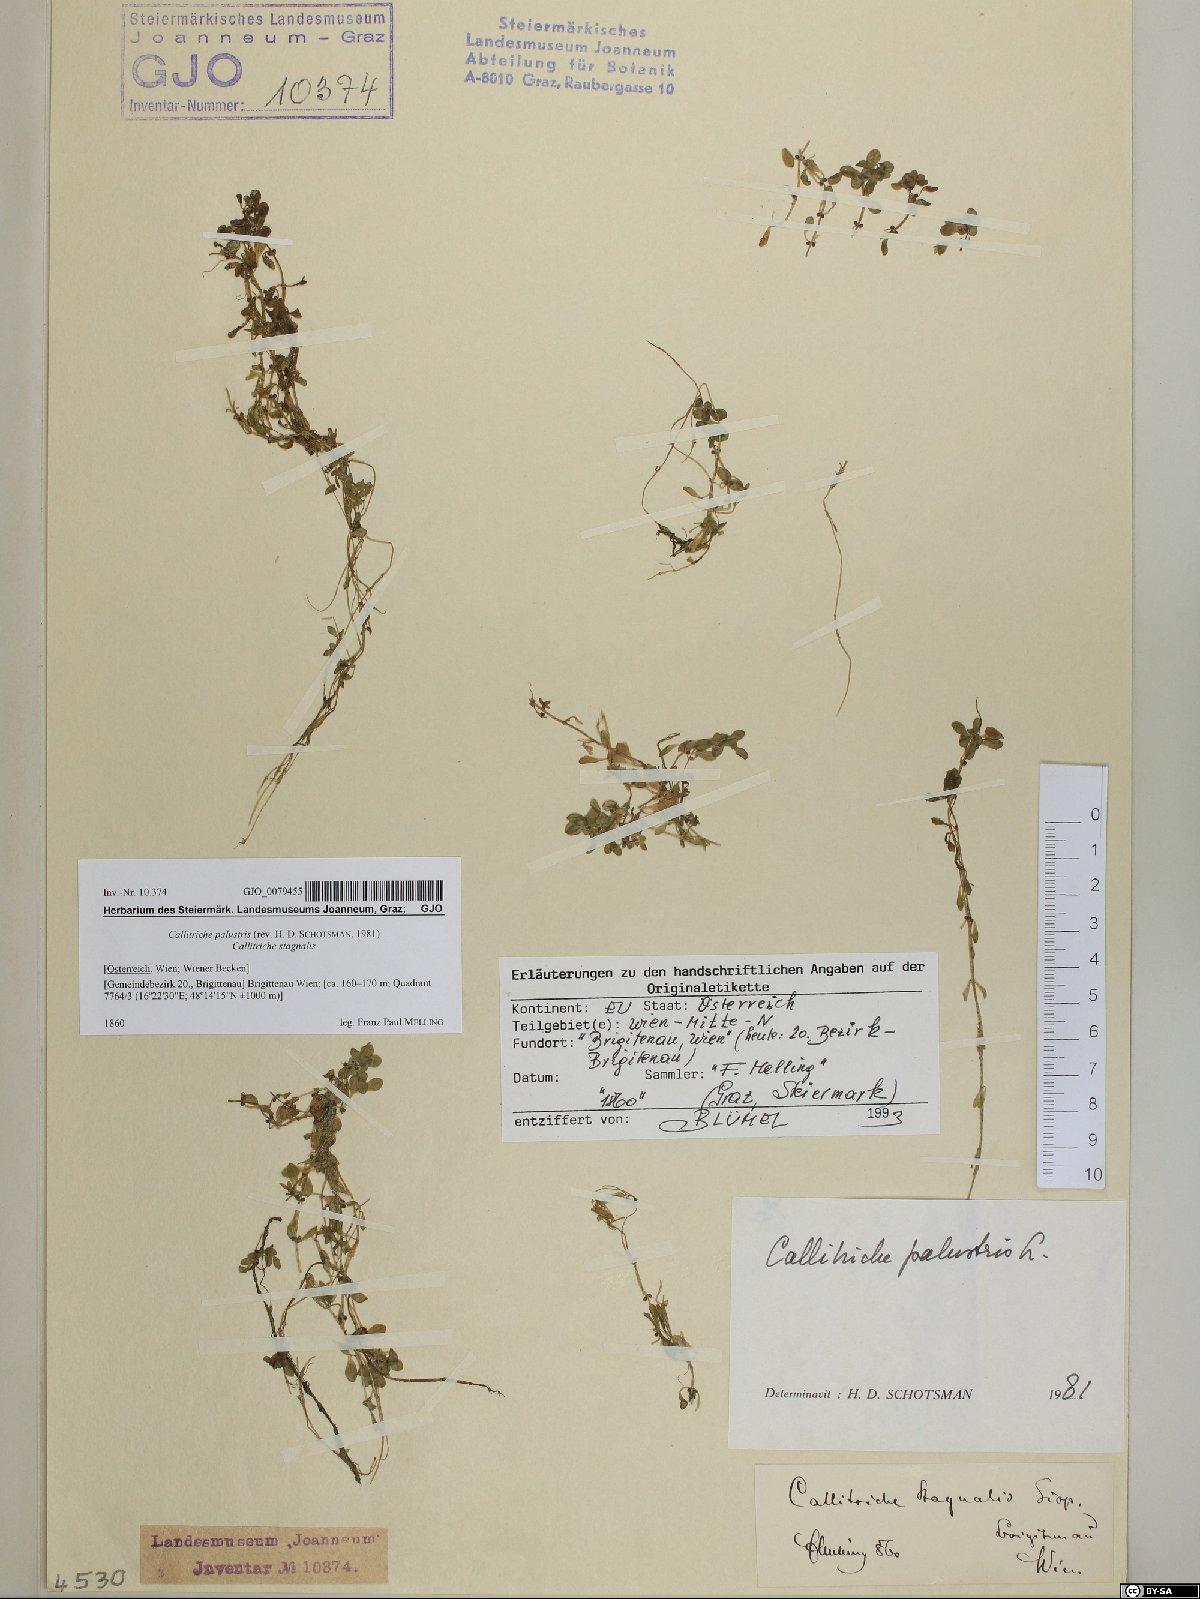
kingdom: Plantae
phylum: Tracheophyta
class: Magnoliopsida
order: Lamiales
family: Plantaginaceae
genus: Callitriche
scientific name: Callitriche palustris
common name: Spring water-starwort
